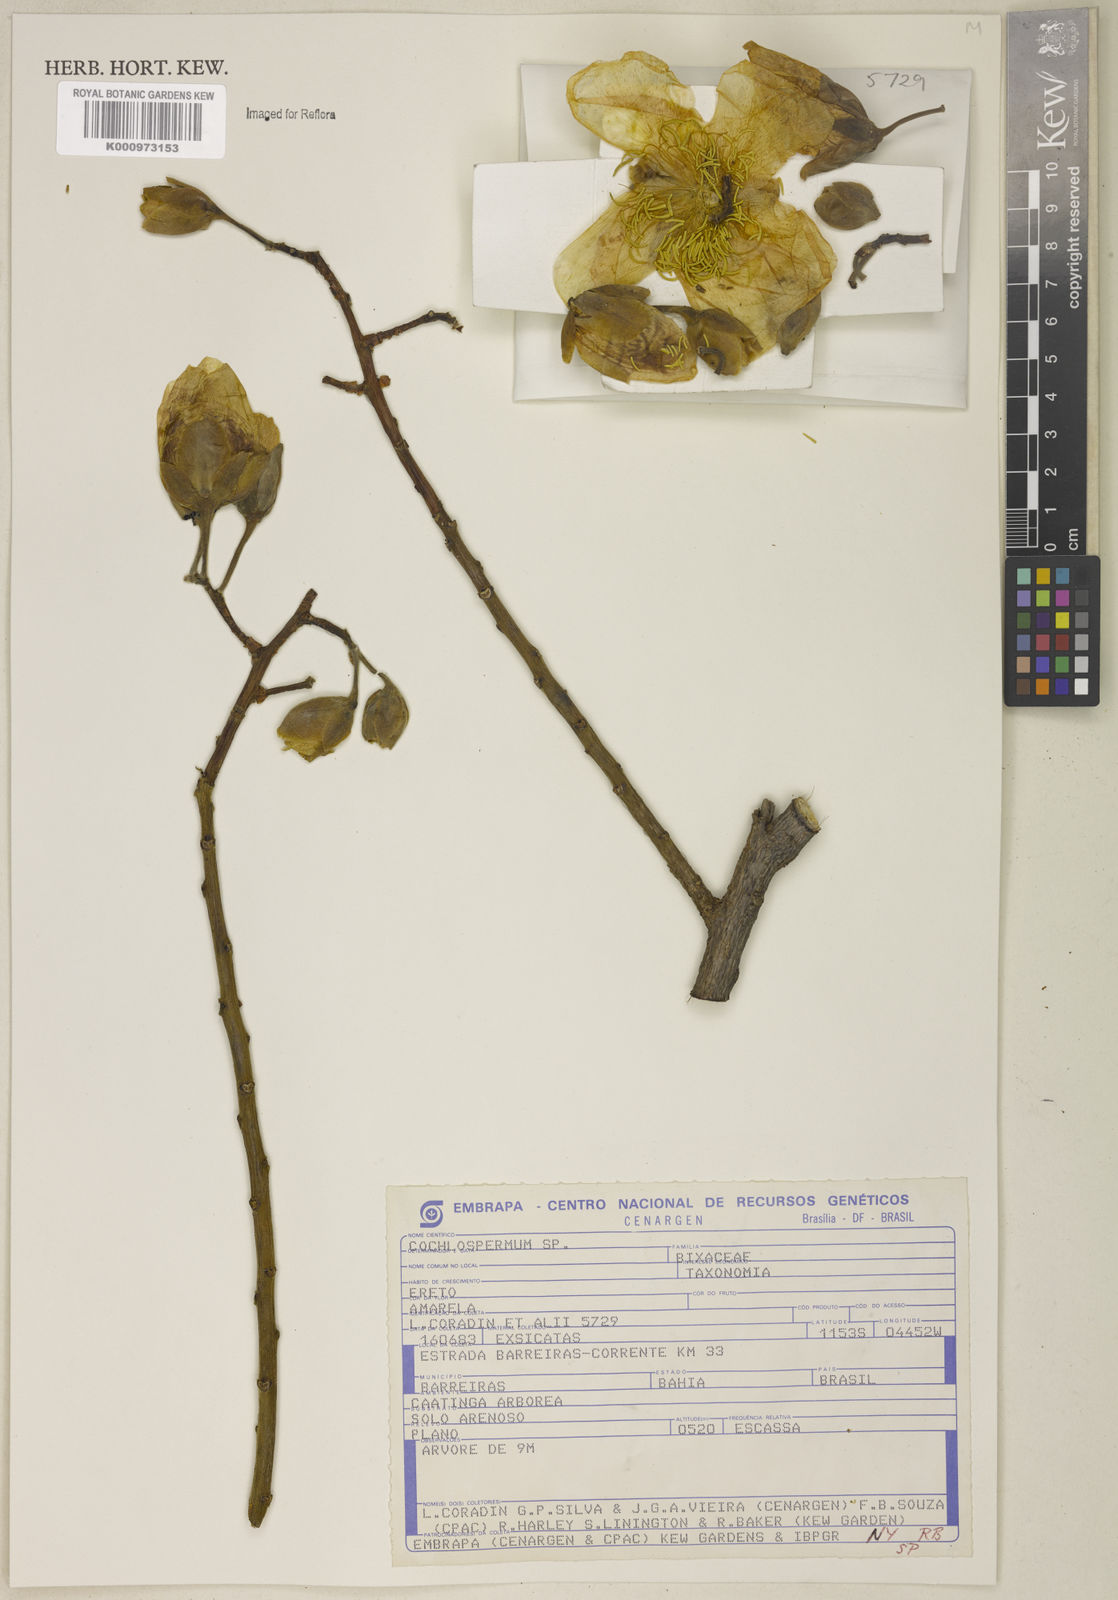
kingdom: Plantae
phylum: Tracheophyta
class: Magnoliopsida
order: Malvales
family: Cochlospermaceae
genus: Cochlospermum
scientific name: Cochlospermum
